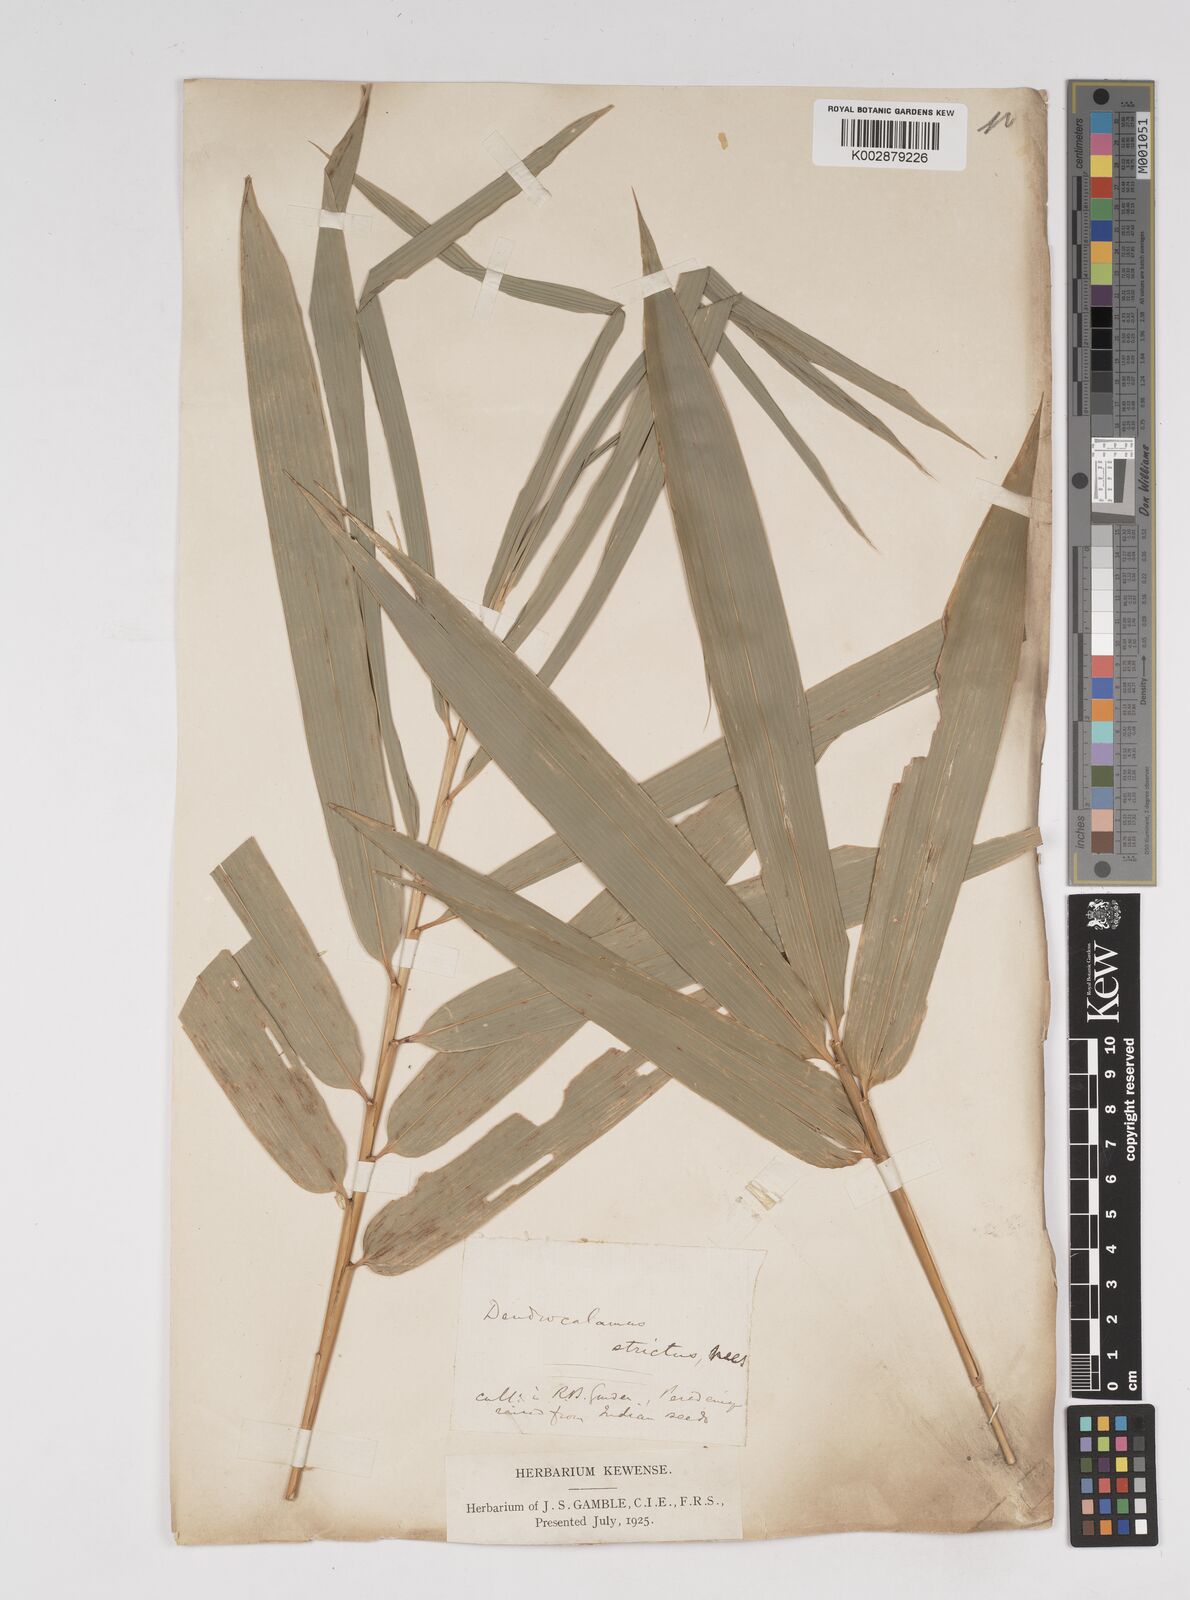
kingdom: Plantae
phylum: Tracheophyta
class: Liliopsida
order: Poales
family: Poaceae
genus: Dendrocalamus
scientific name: Dendrocalamus strictus
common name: Male bamboo
